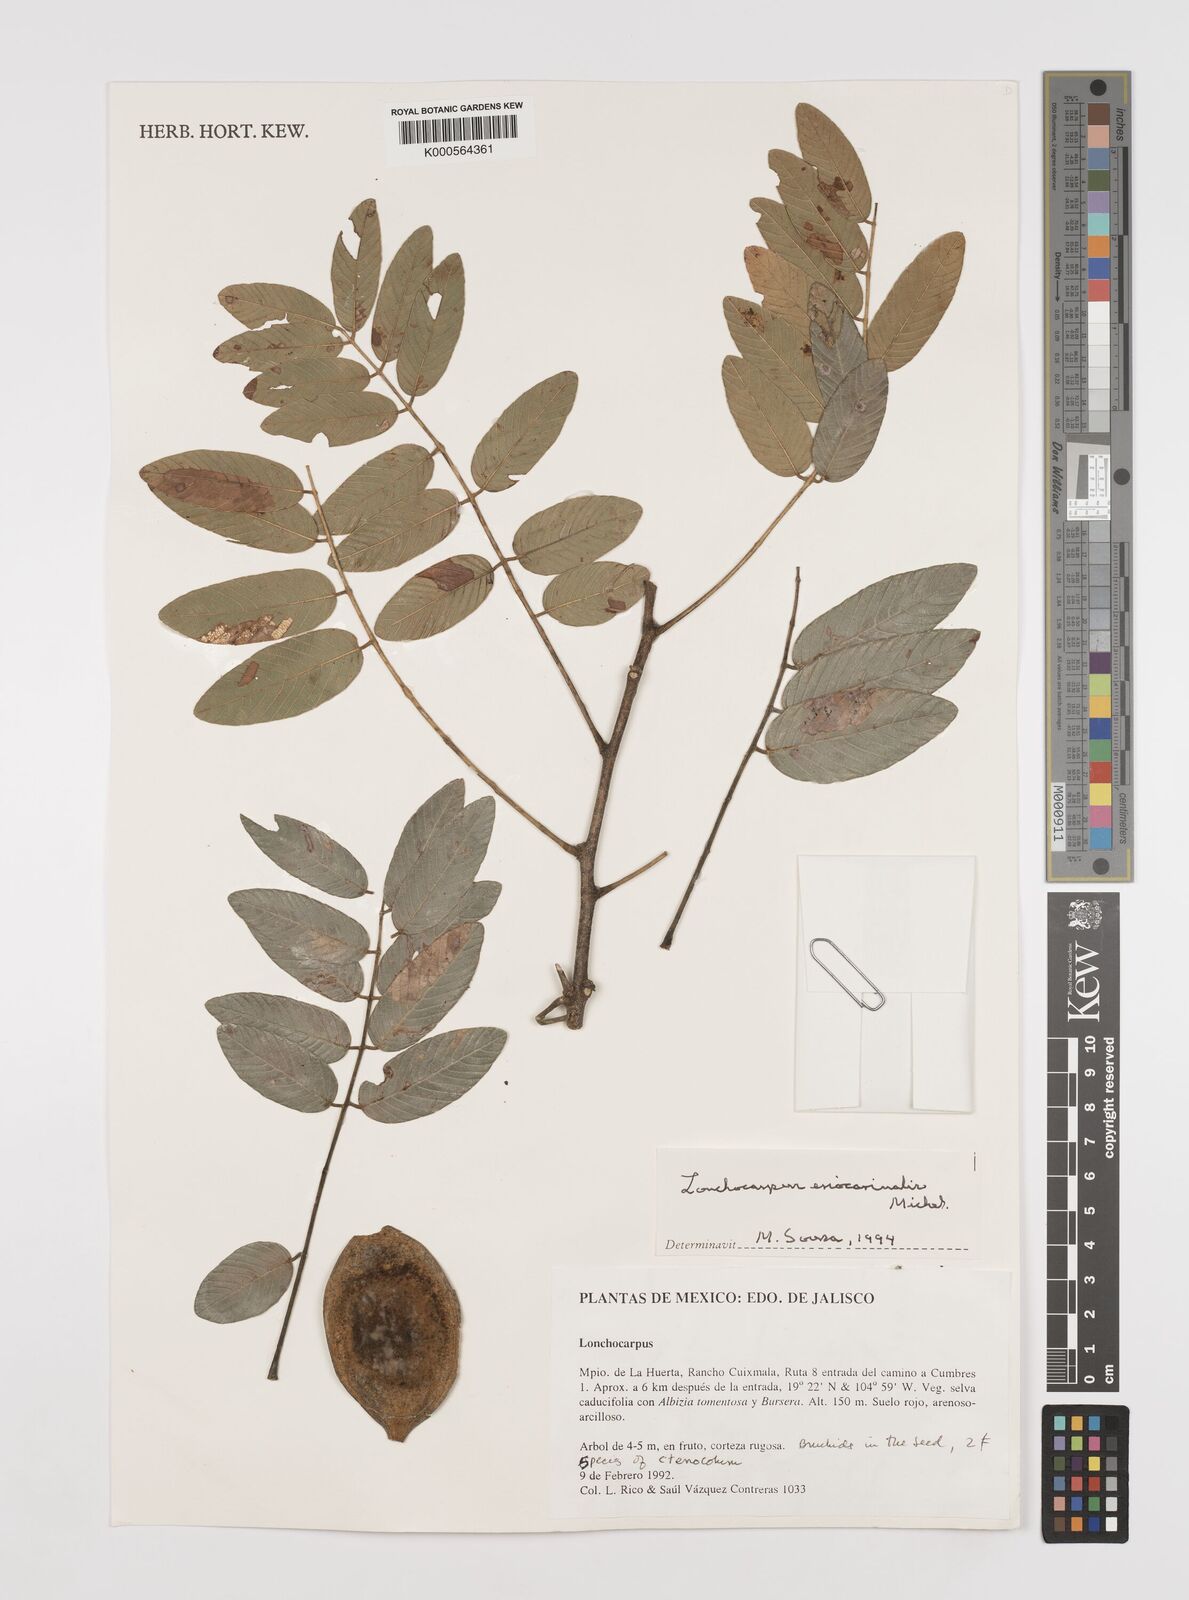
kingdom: Plantae
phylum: Tracheophyta
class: Magnoliopsida
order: Fabales
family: Fabaceae
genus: Lonchocarpus
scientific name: Lonchocarpus eriocarinalis
